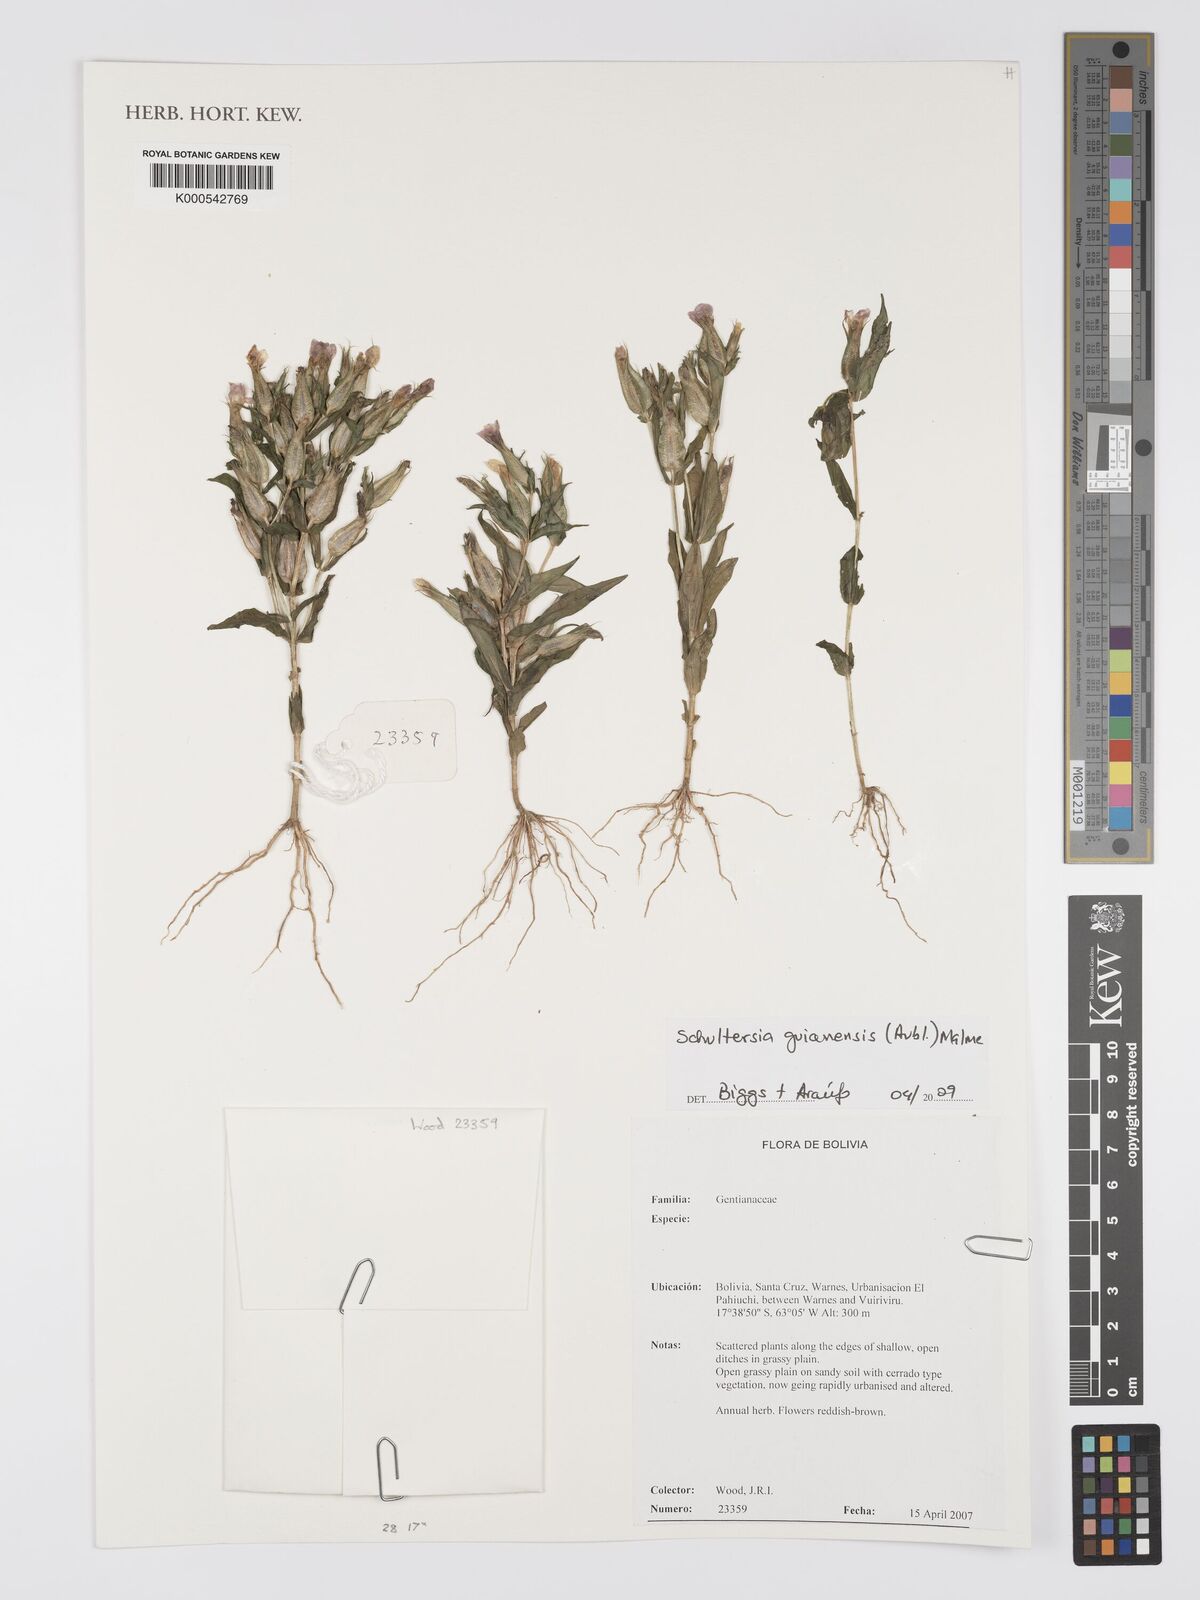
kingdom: Plantae
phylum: Tracheophyta
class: Magnoliopsida
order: Gentianales
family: Gentianaceae
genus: Schultesia
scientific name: Schultesia guianensis
